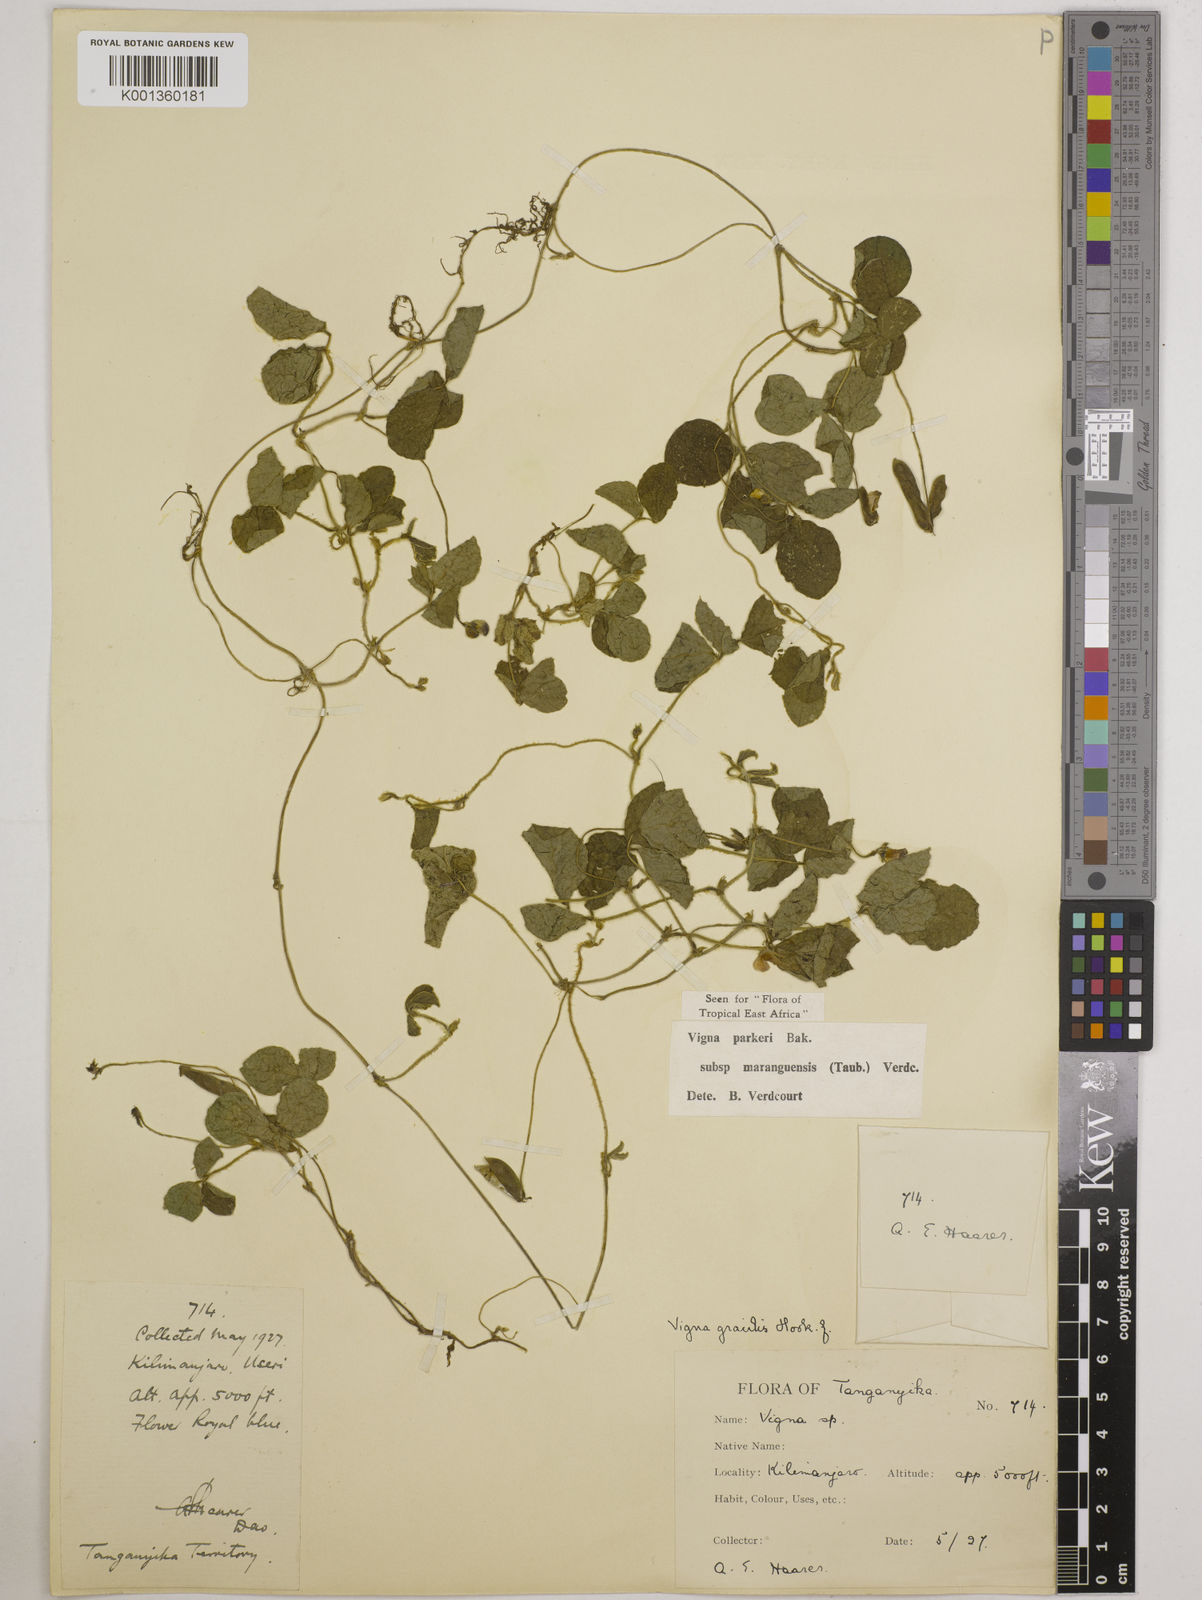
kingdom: Plantae
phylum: Tracheophyta
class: Magnoliopsida
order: Fabales
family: Fabaceae
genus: Vigna
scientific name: Vigna
